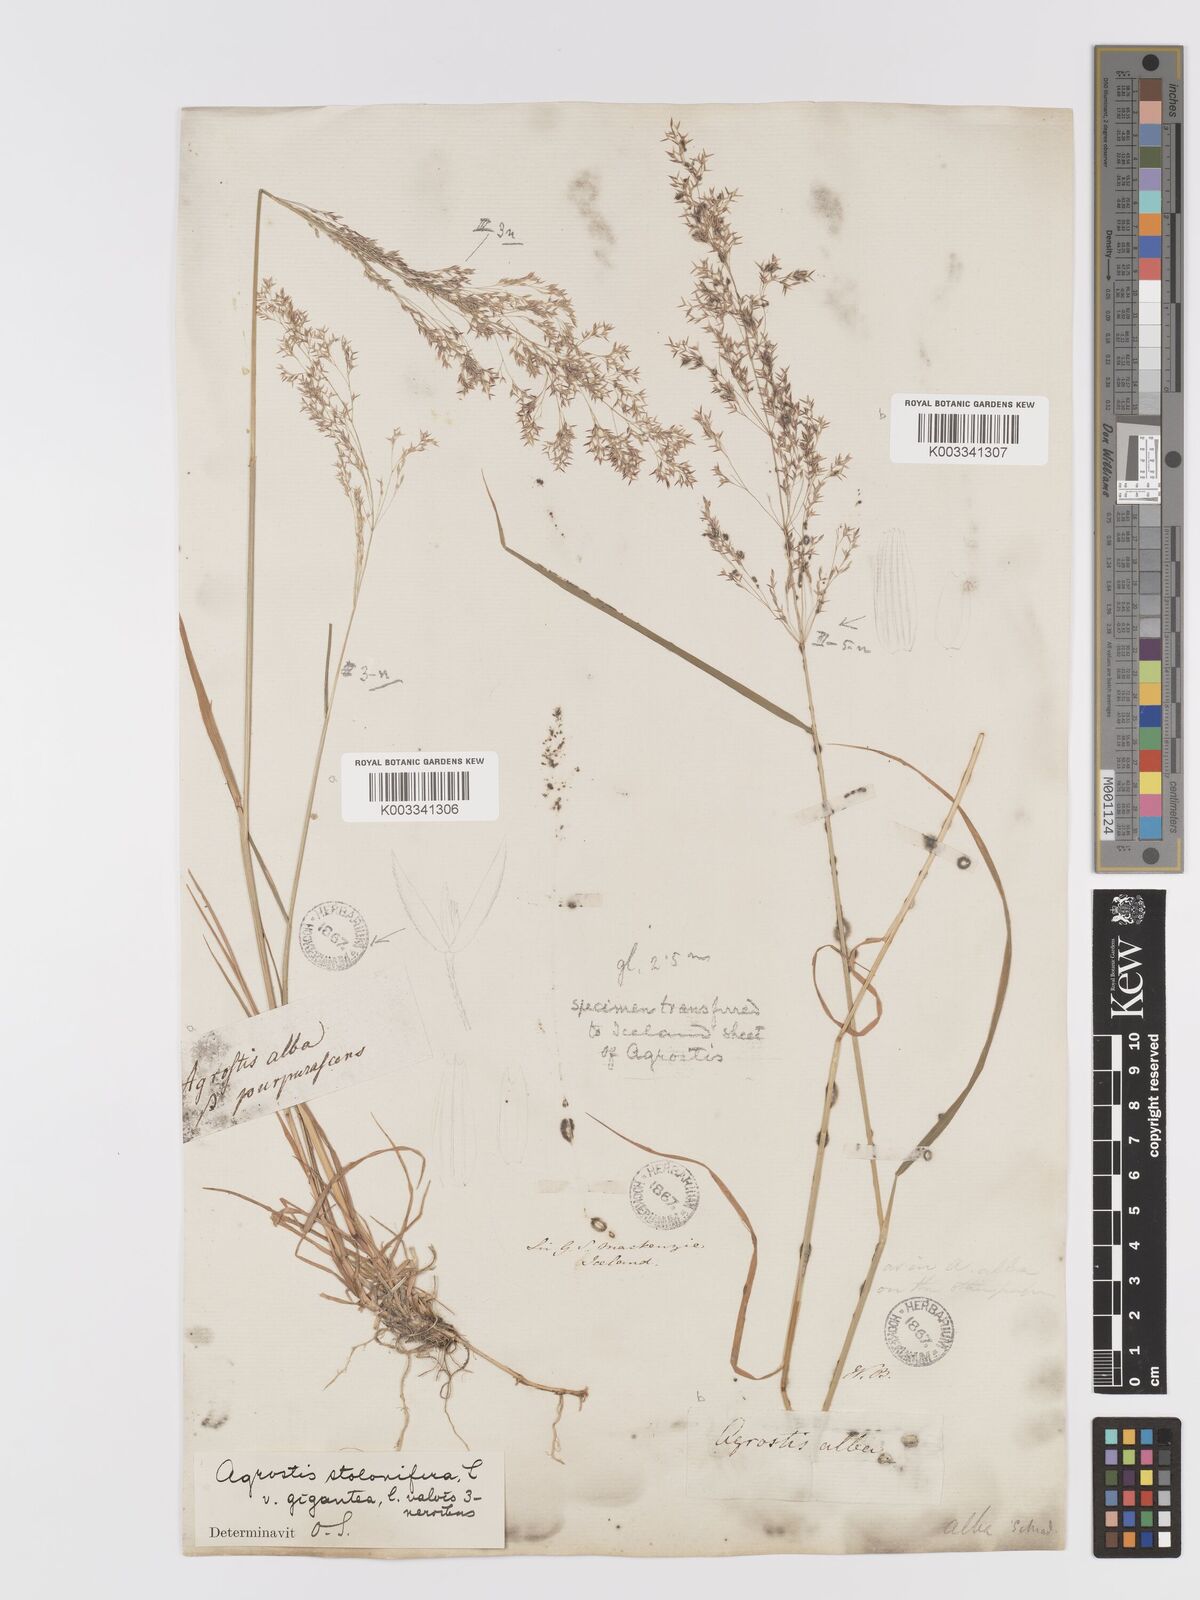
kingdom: Plantae
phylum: Tracheophyta
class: Liliopsida
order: Poales
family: Poaceae
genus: Agrostis
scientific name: Agrostis gigantea
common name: Black bent
